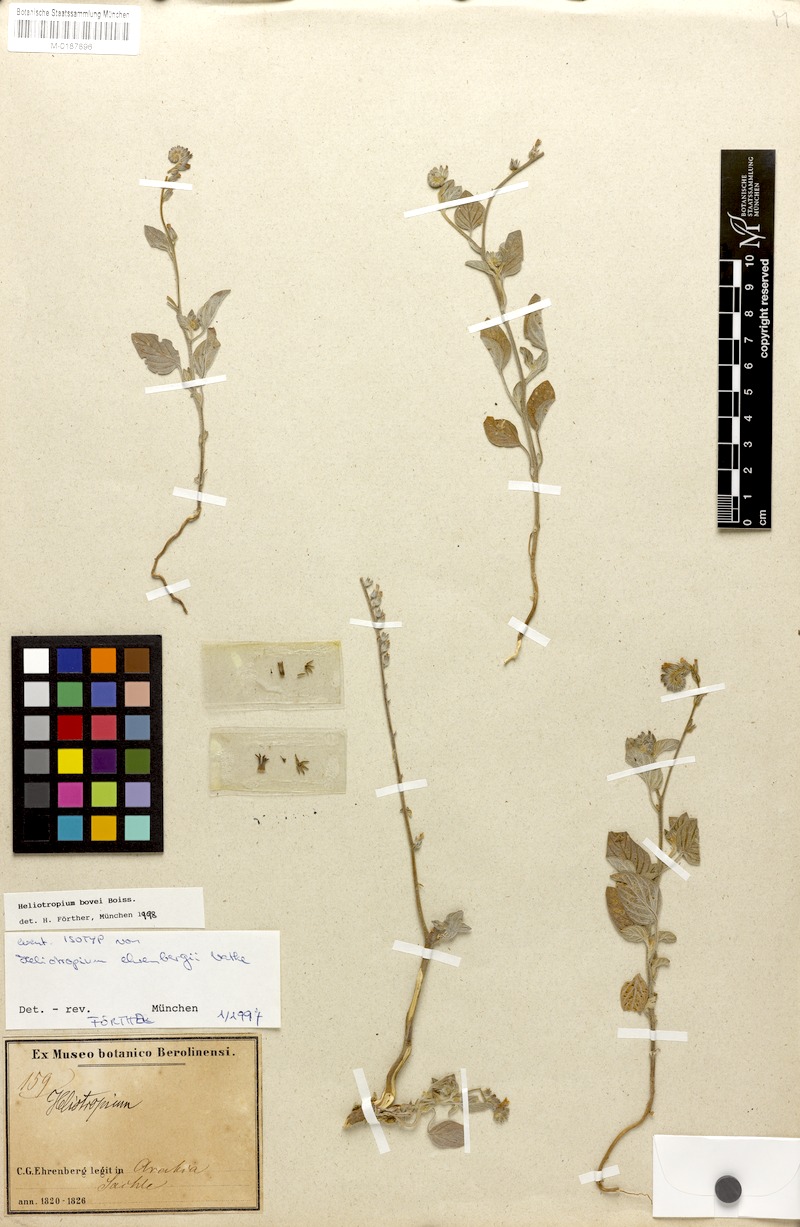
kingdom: Plantae
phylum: Tracheophyta
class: Magnoliopsida
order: Boraginales
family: Heliotropiaceae
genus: Heliotropium
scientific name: Heliotropium bovei
